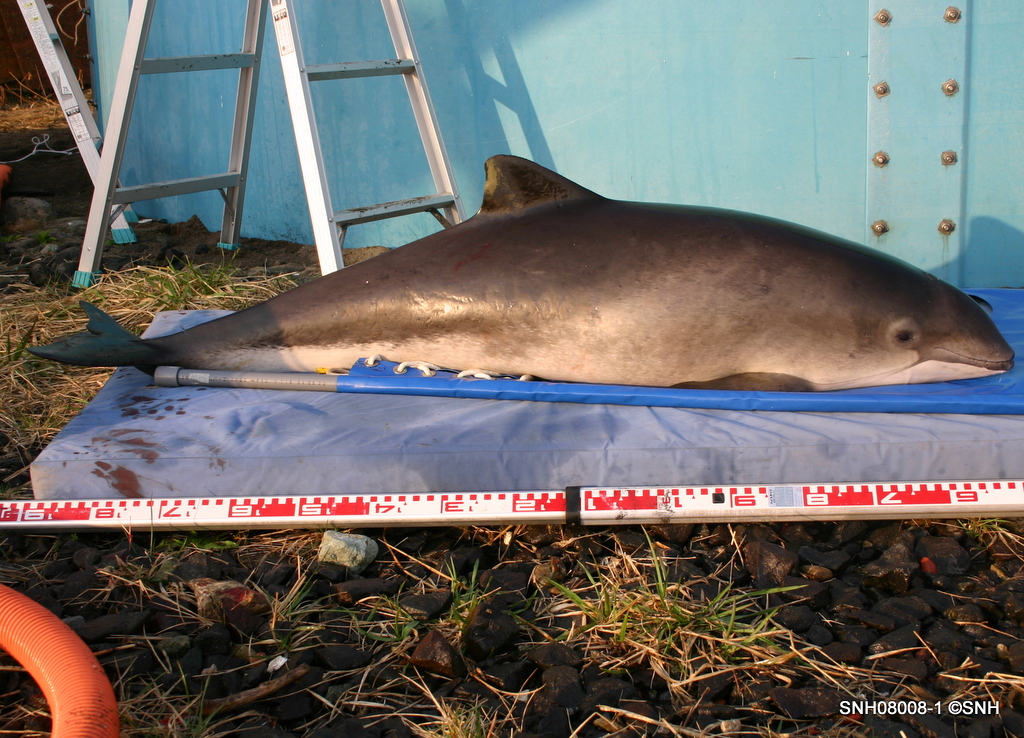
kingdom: Animalia
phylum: Chordata
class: Mammalia
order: Cetacea
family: Phocoenidae
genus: Phocoena
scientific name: Phocoena phocoena
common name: Harbour porpoise
